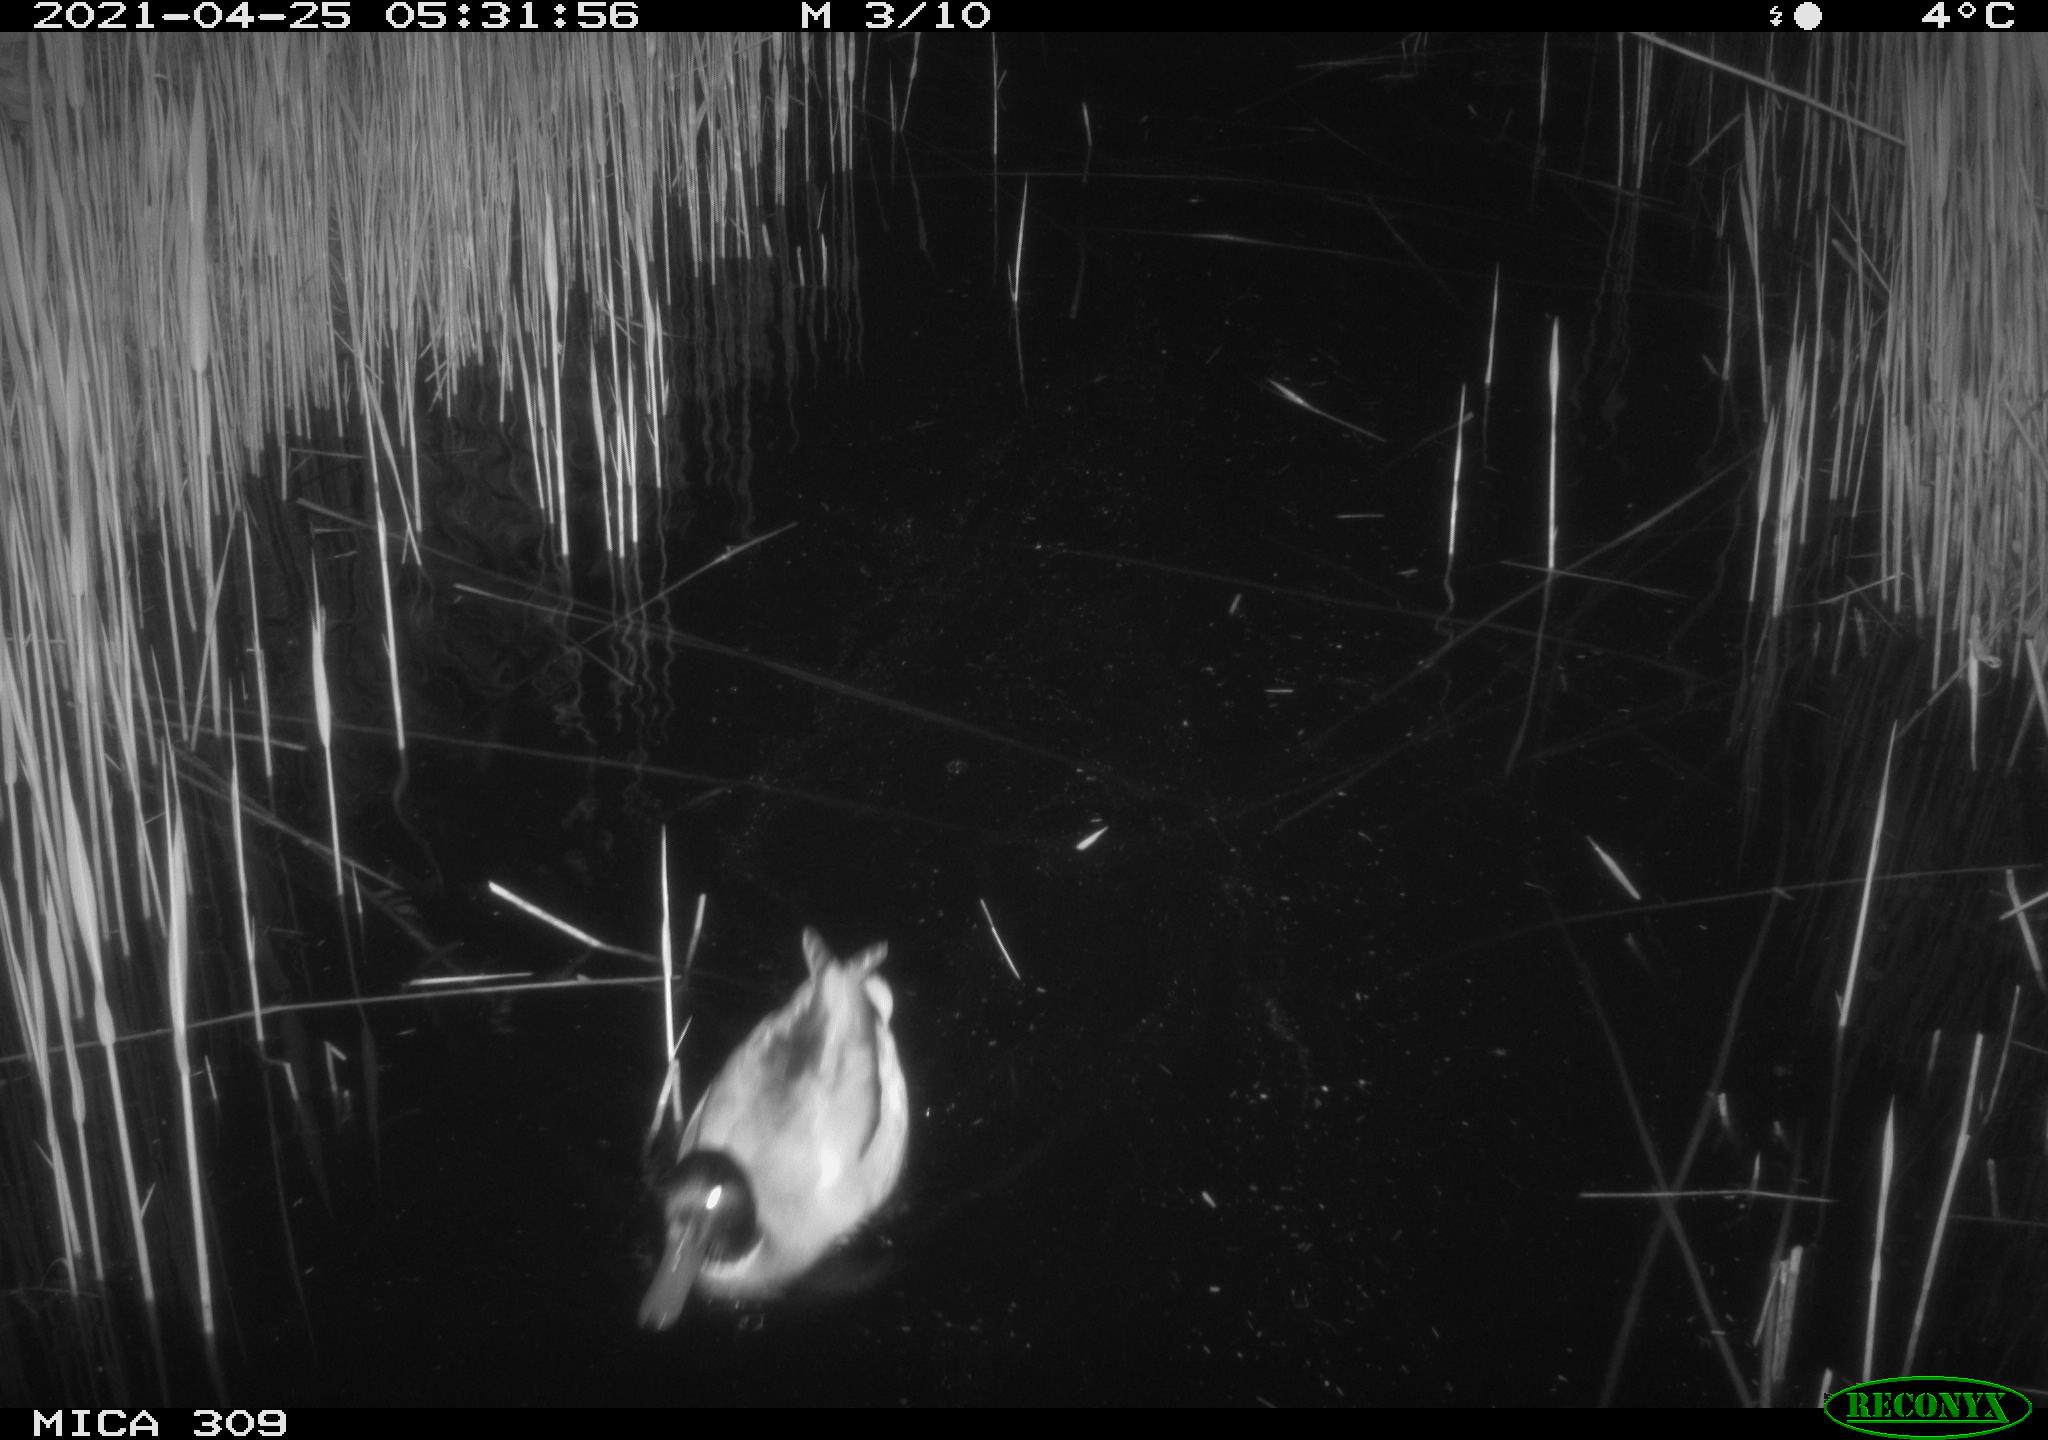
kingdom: Animalia
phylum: Chordata
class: Aves
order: Anseriformes
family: Anatidae
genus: Anas
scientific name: Anas platyrhynchos
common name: Mallard
